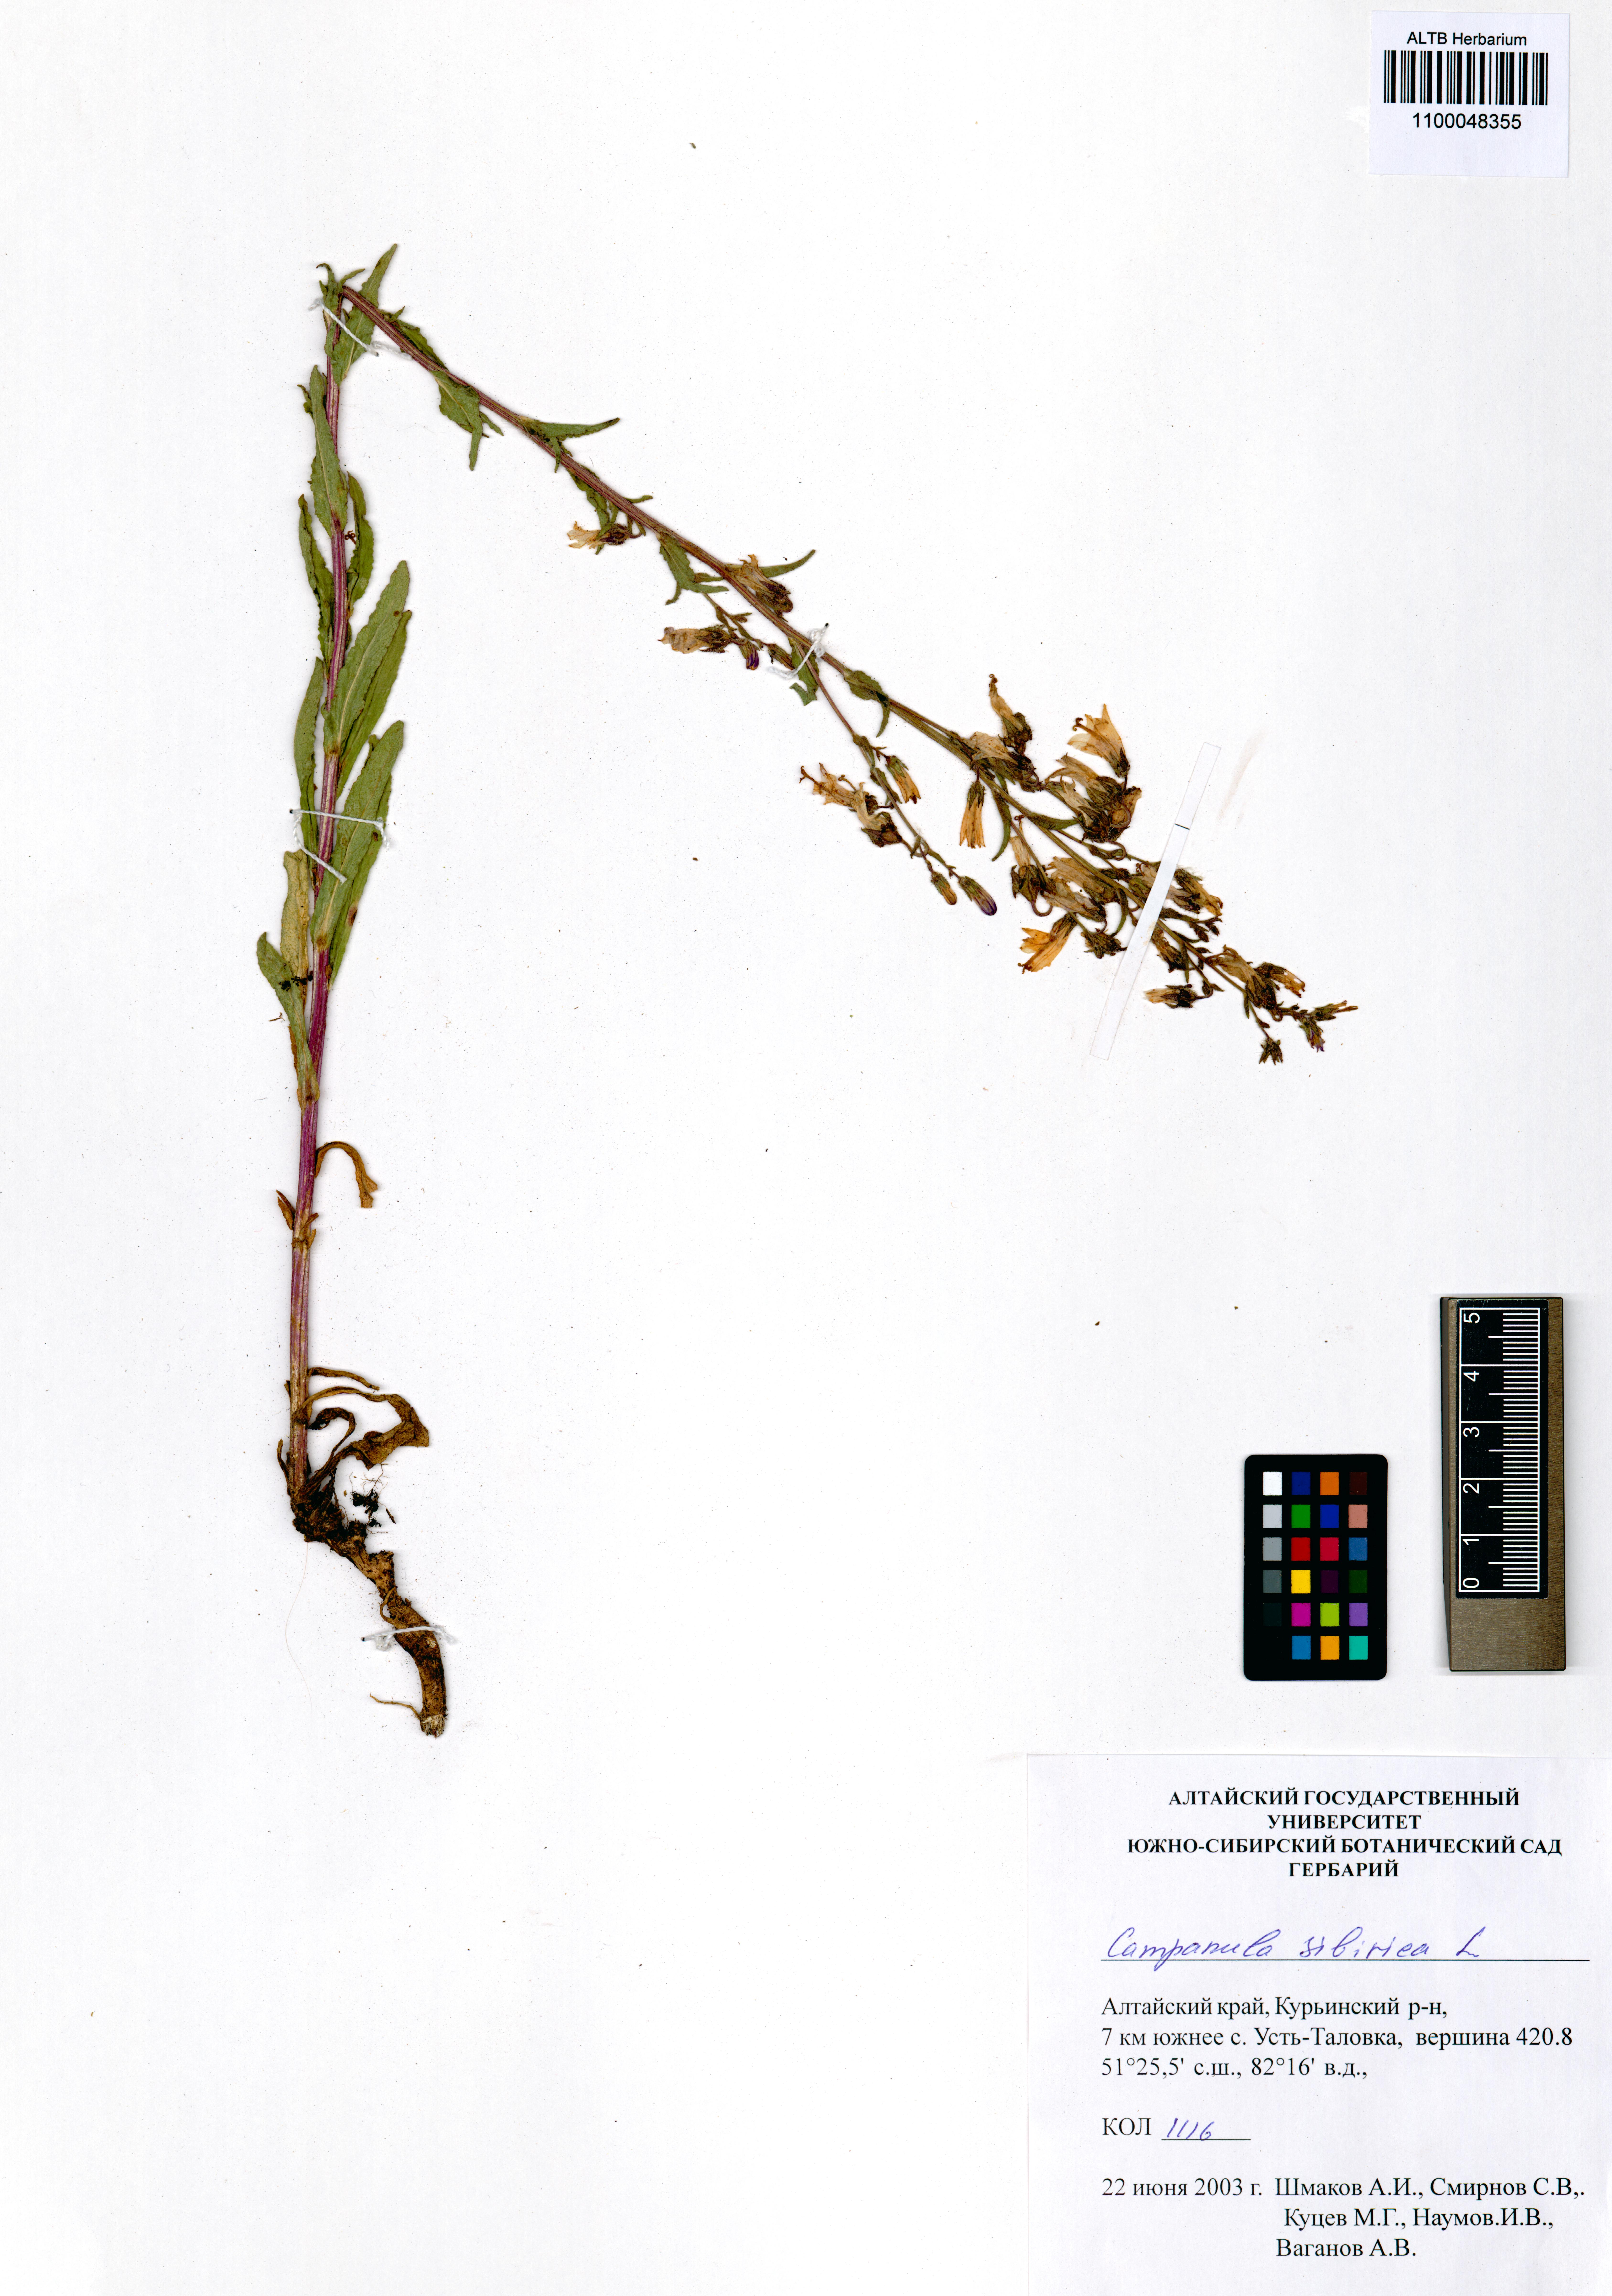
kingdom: Plantae
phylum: Tracheophyta
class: Magnoliopsida
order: Asterales
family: Campanulaceae
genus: Campanula
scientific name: Campanula sibirica
